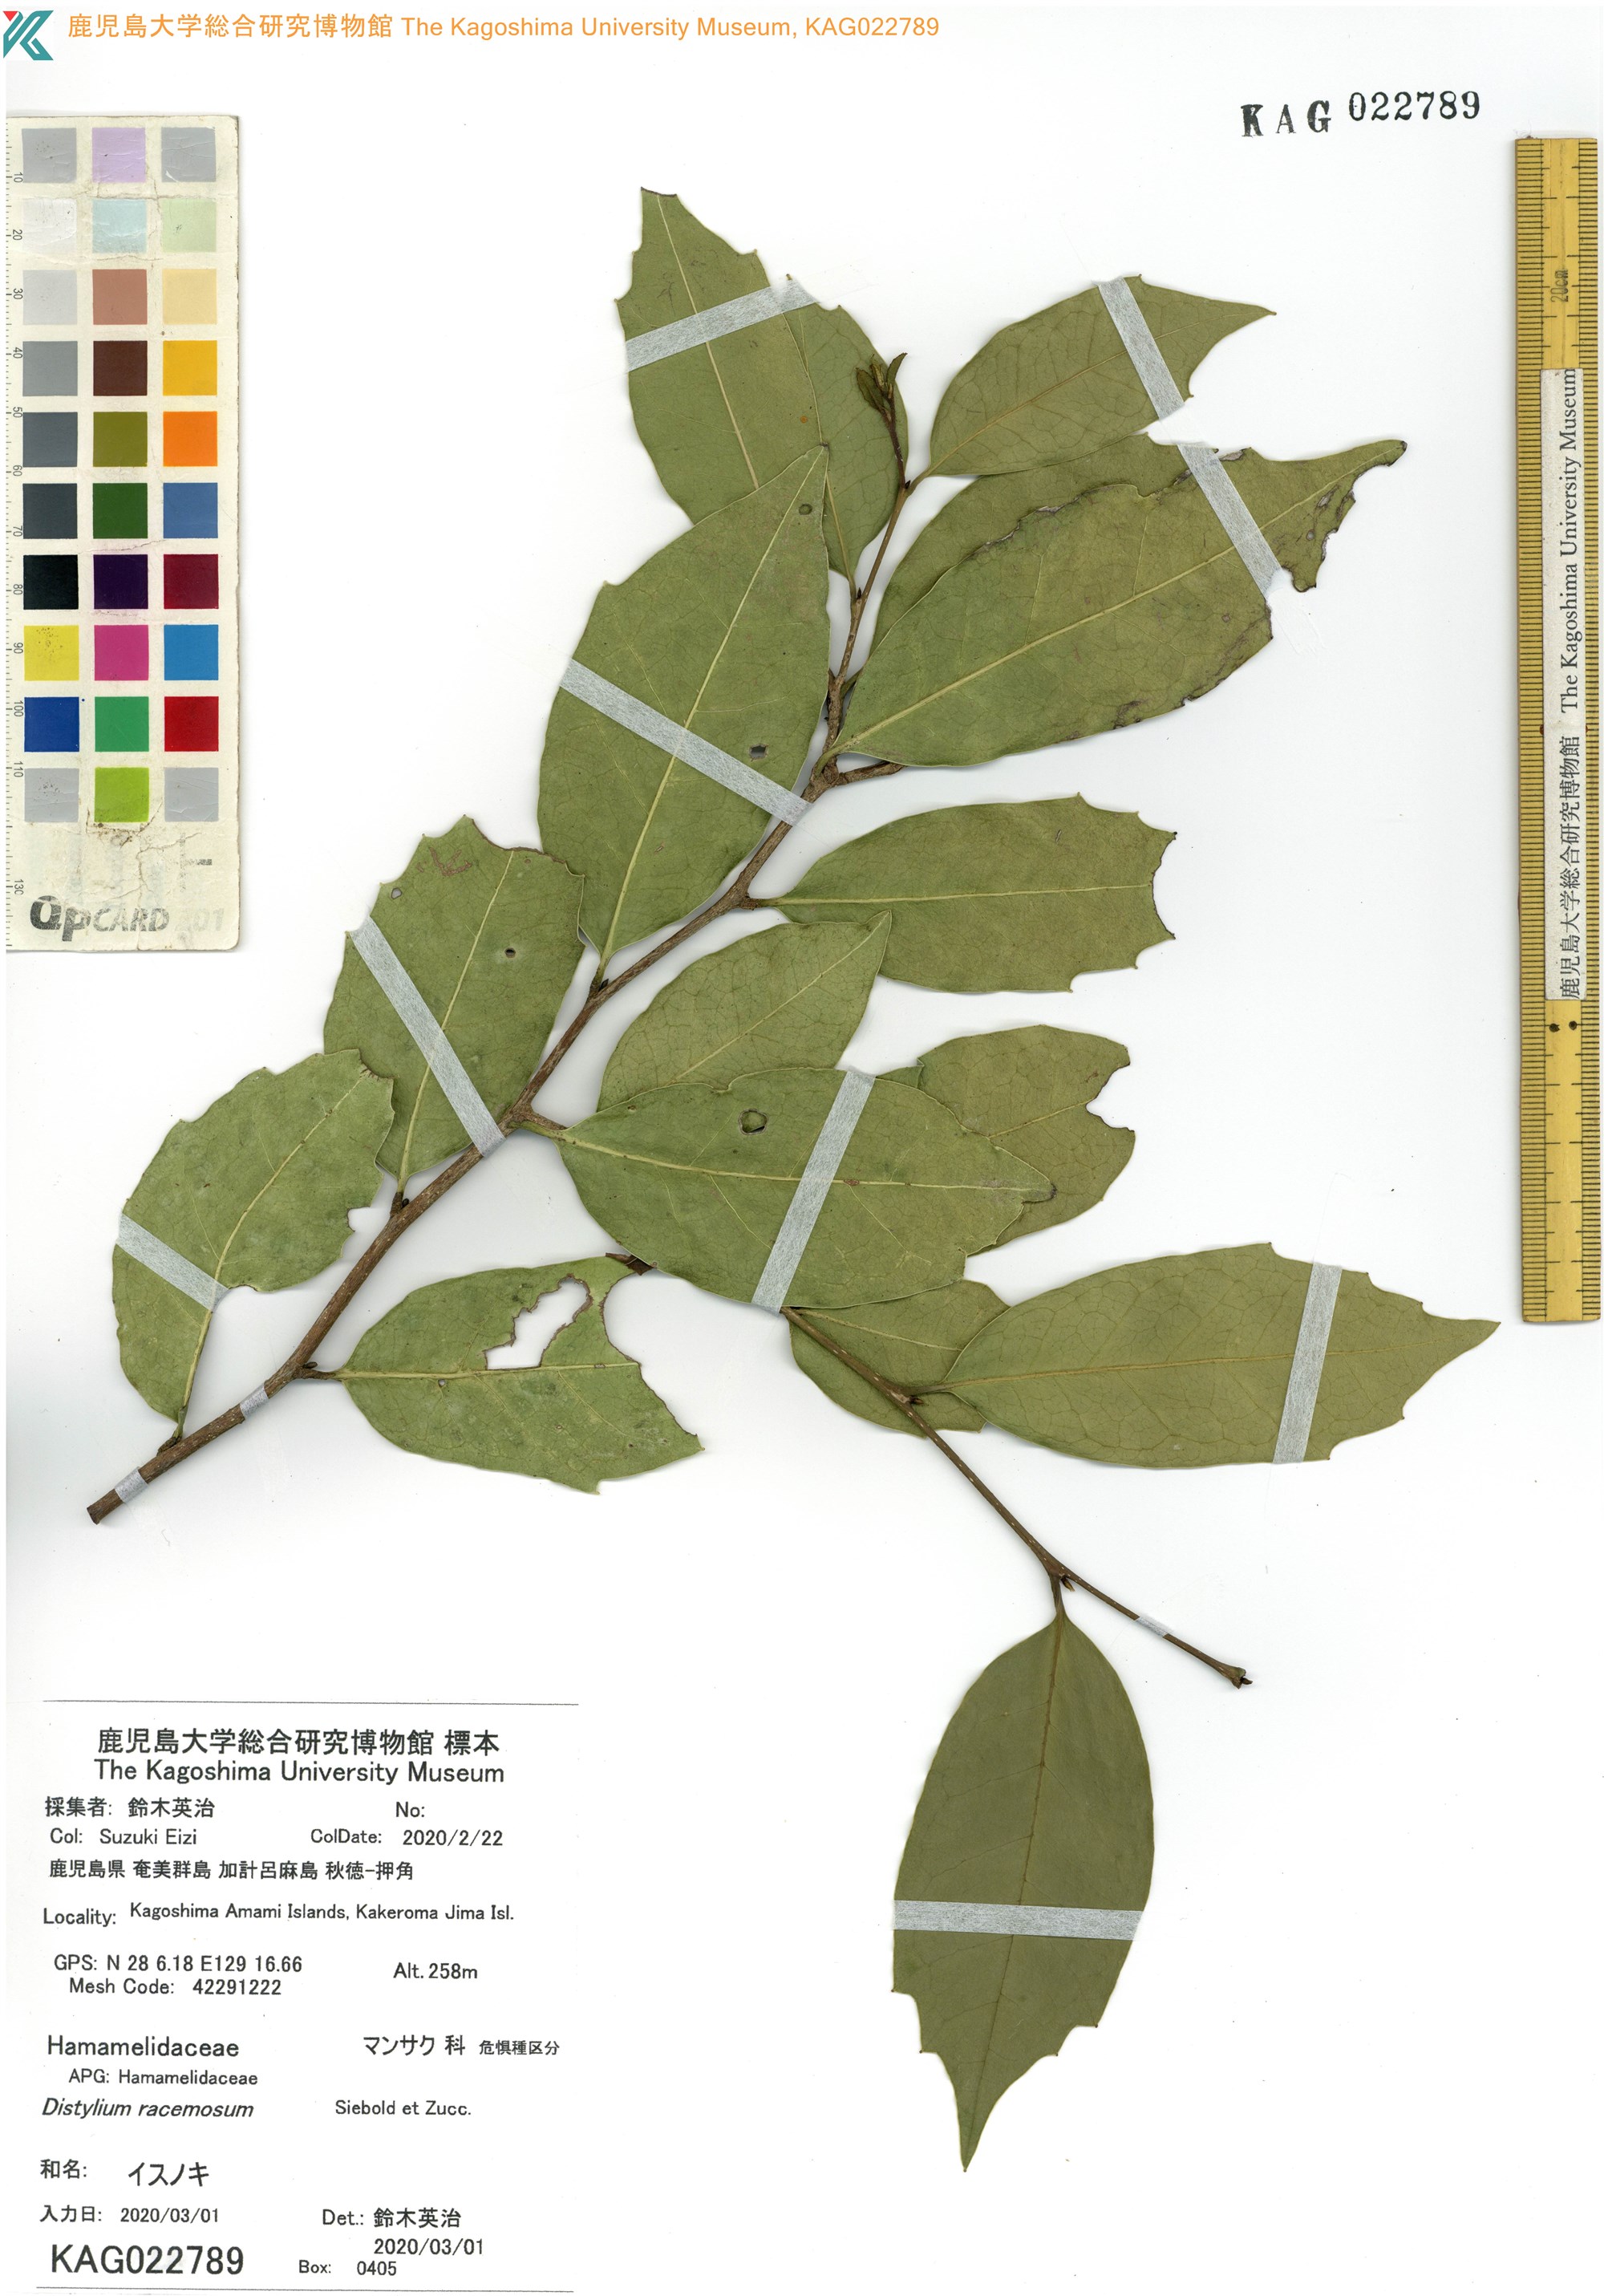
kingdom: Plantae
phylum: Tracheophyta
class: Magnoliopsida
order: Saxifragales
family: Hamamelidaceae
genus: Distylium
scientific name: Distylium racemosum
